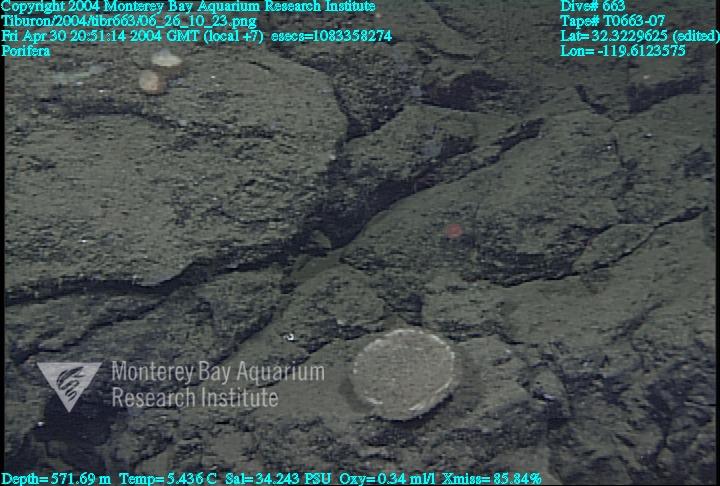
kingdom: Animalia
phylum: Porifera
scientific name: Porifera
